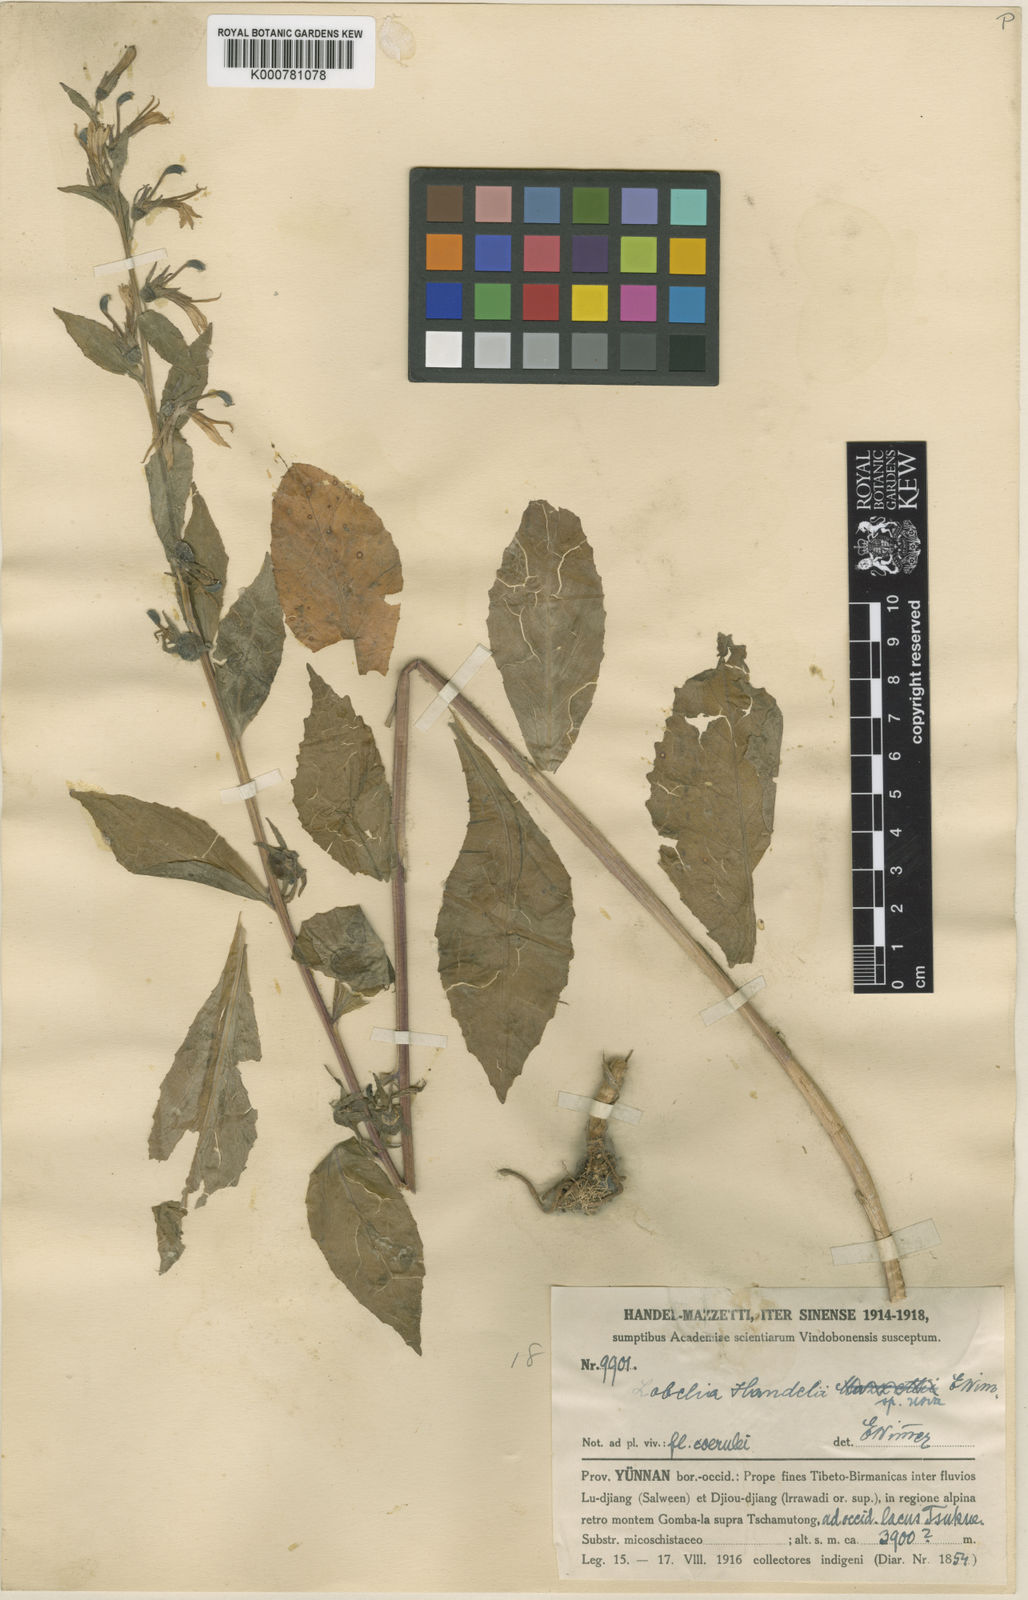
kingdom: Plantae
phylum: Tracheophyta
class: Magnoliopsida
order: Asterales
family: Campanulaceae
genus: Lobelia
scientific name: Lobelia davidii
